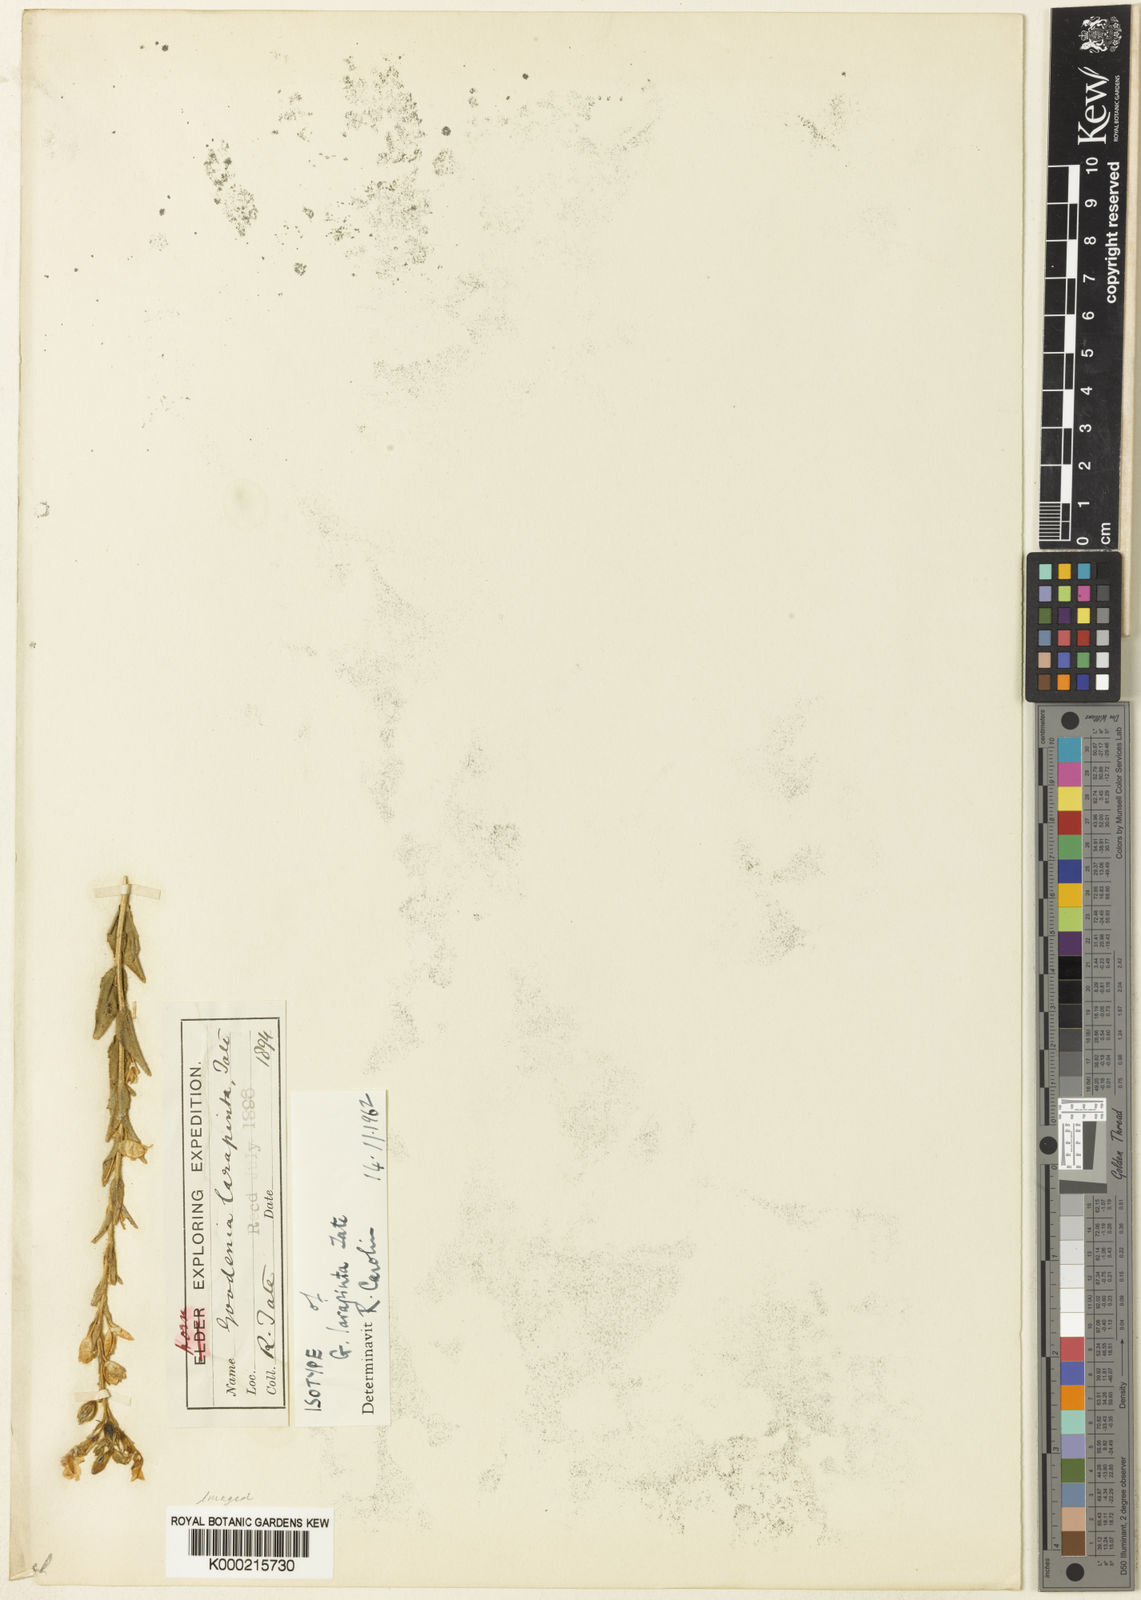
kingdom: Plantae
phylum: Tracheophyta
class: Magnoliopsida
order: Asterales
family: Goodeniaceae
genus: Goodenia
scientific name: Goodenia
